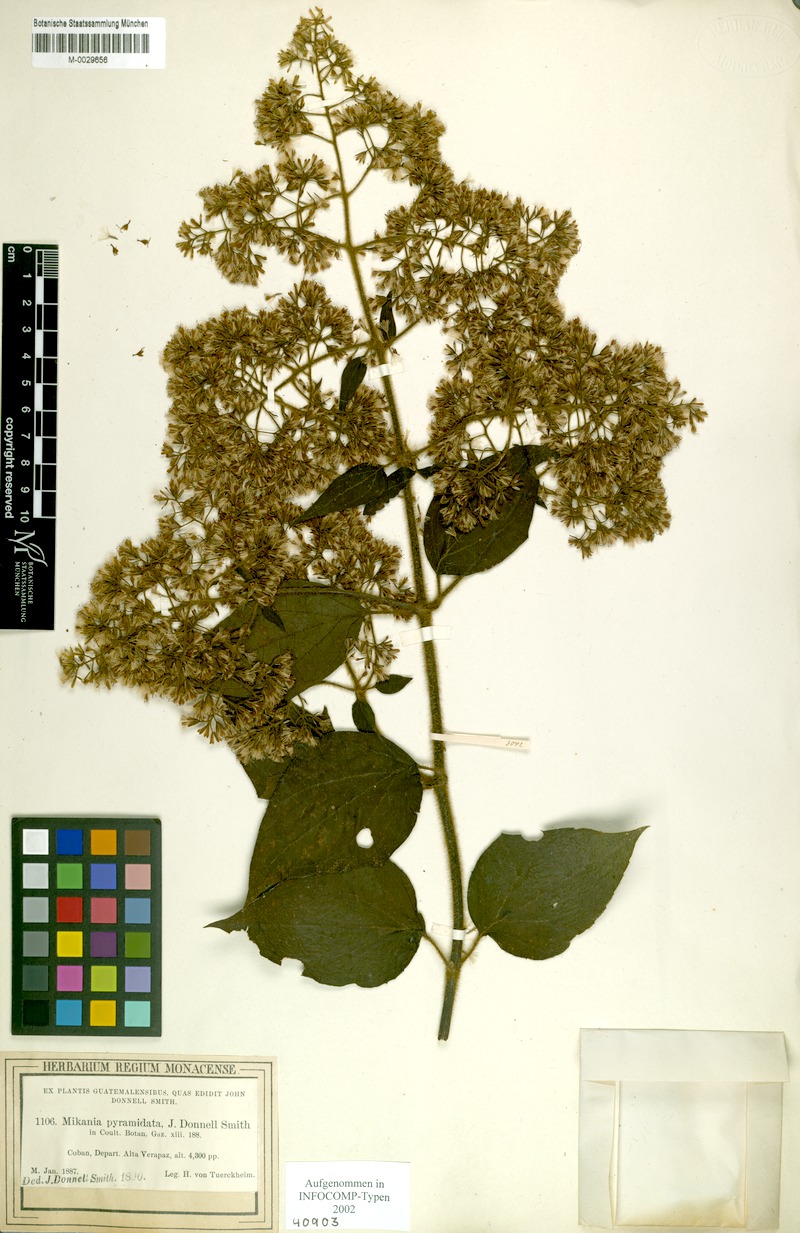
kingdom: Plantae
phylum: Tracheophyta
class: Magnoliopsida
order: Asterales
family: Asteraceae
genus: Mikania
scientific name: Mikania pyramidata
